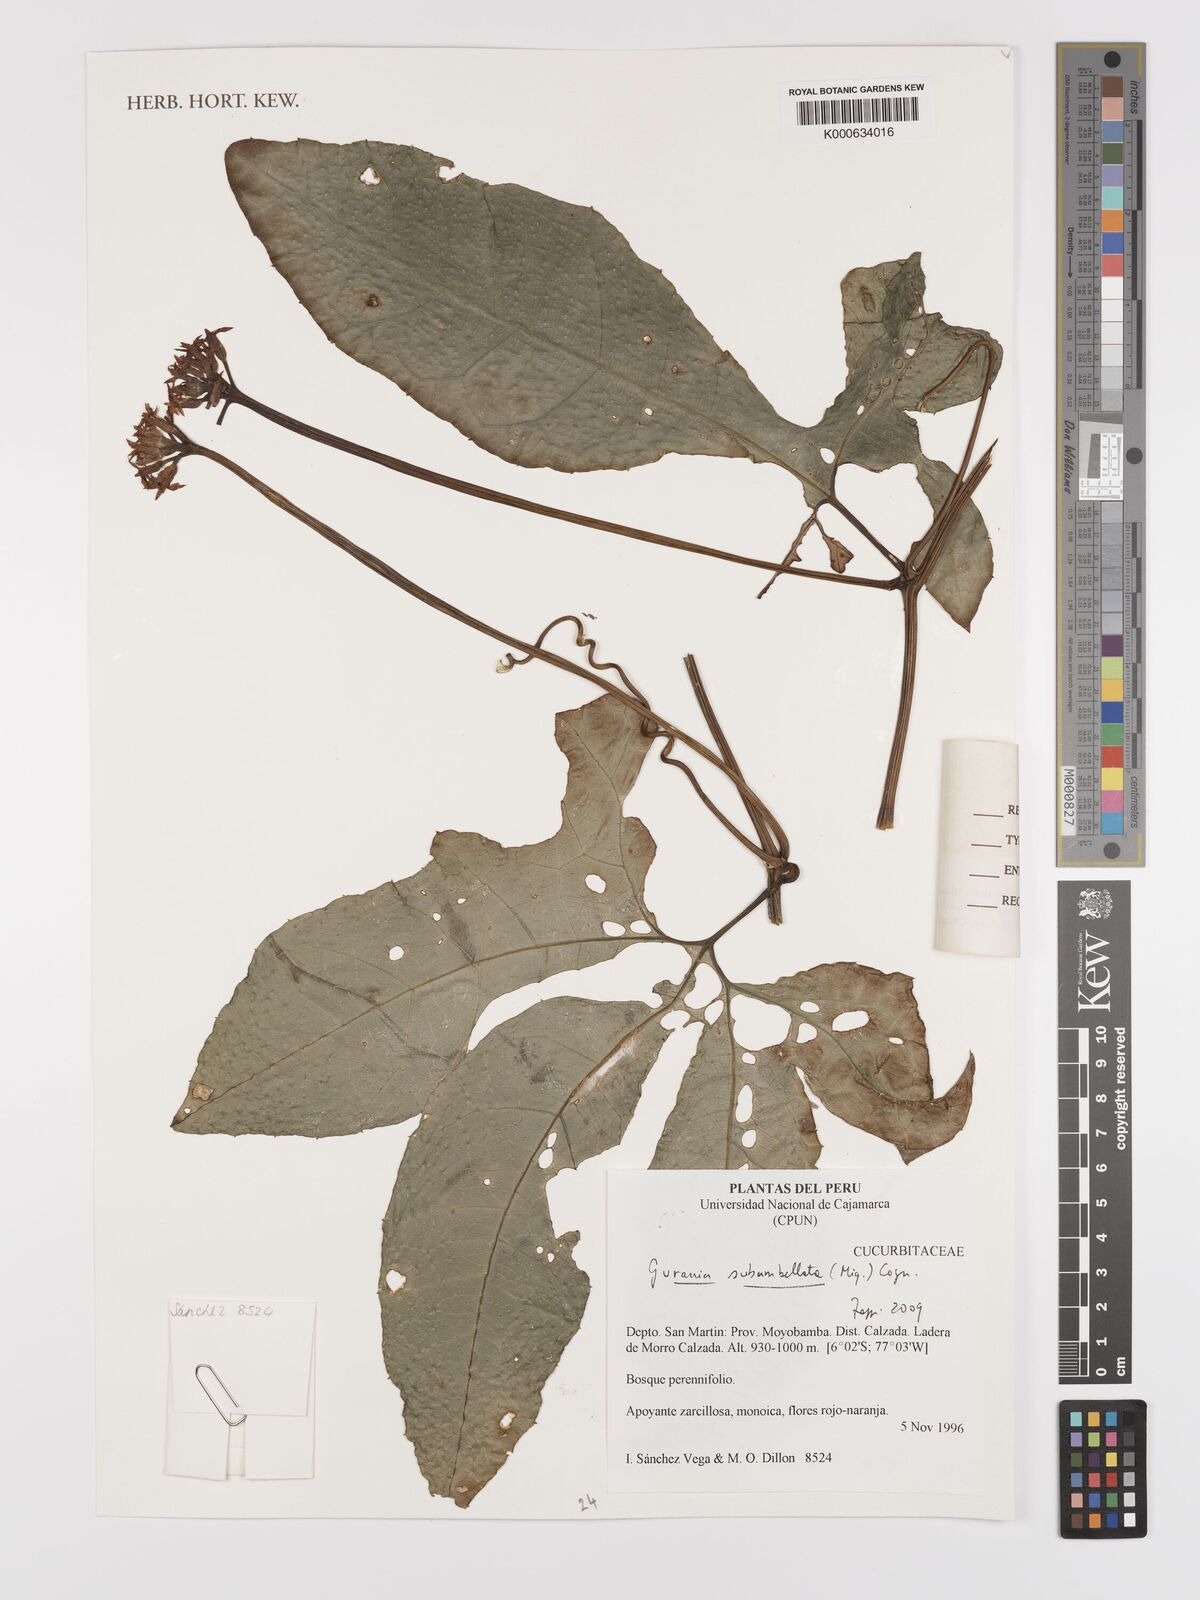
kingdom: Plantae
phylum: Tracheophyta
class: Magnoliopsida
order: Cucurbitales
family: Cucurbitaceae
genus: Gurania
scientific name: Gurania subumbellata
